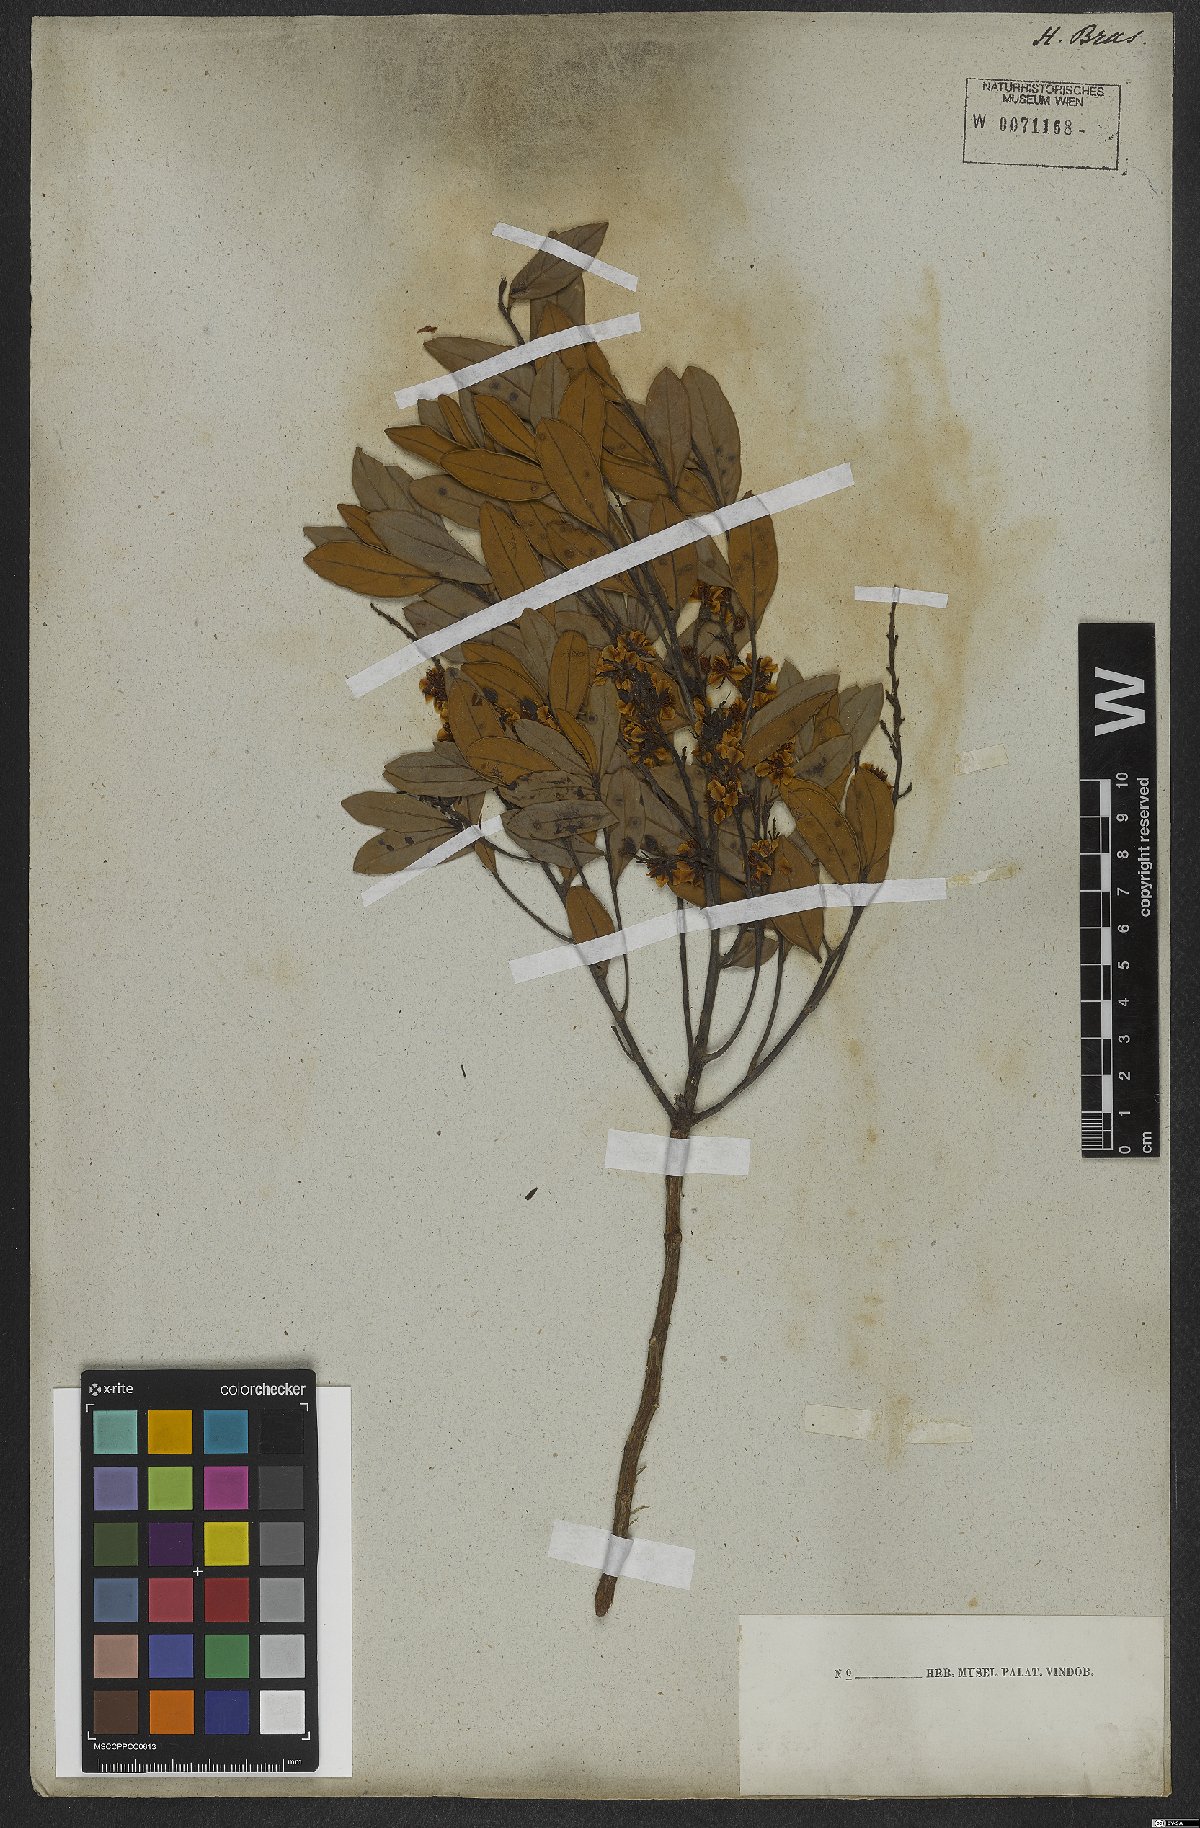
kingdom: Plantae
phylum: Tracheophyta
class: Magnoliopsida
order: Malpighiales
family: Ochnaceae
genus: Ouratea
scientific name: Ouratea
